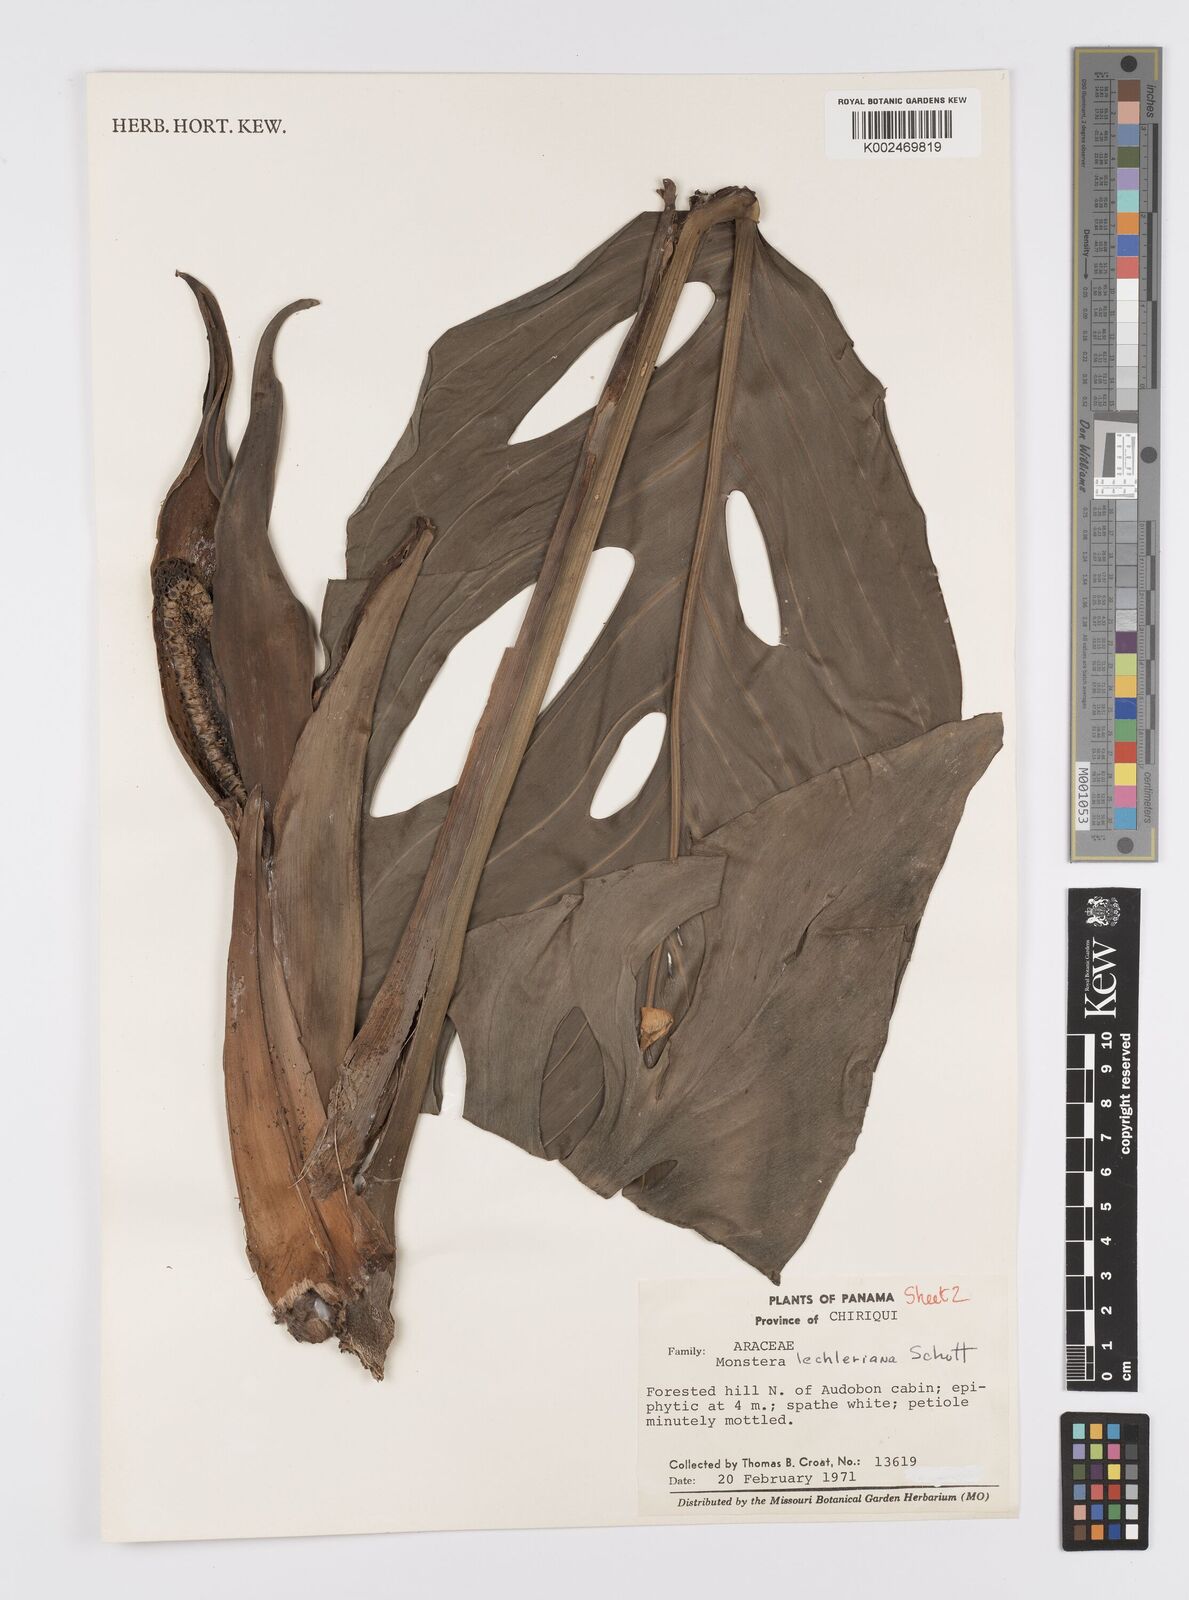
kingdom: Plantae
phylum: Tracheophyta
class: Liliopsida
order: Alismatales
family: Araceae
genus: Monstera
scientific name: Monstera lechleriana
